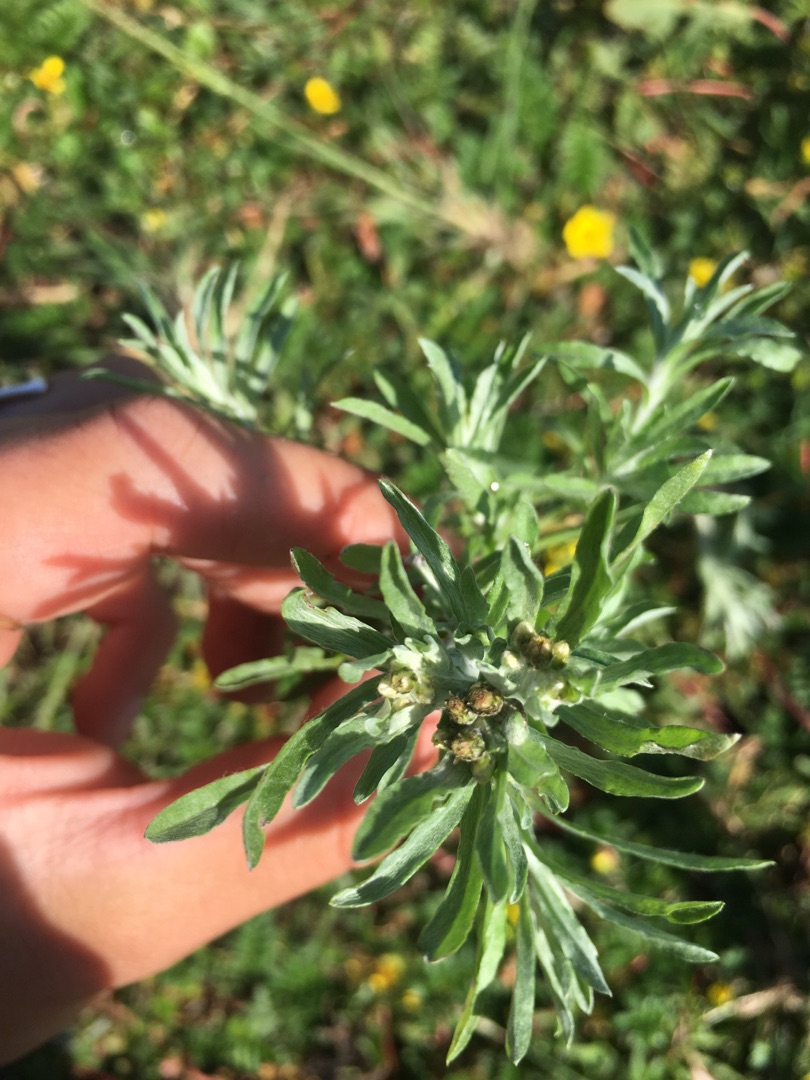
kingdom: Plantae
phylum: Tracheophyta
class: Magnoliopsida
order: Asterales
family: Asteraceae
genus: Gnaphalium
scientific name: Gnaphalium uliginosum
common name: Sump-evighedsblomst
